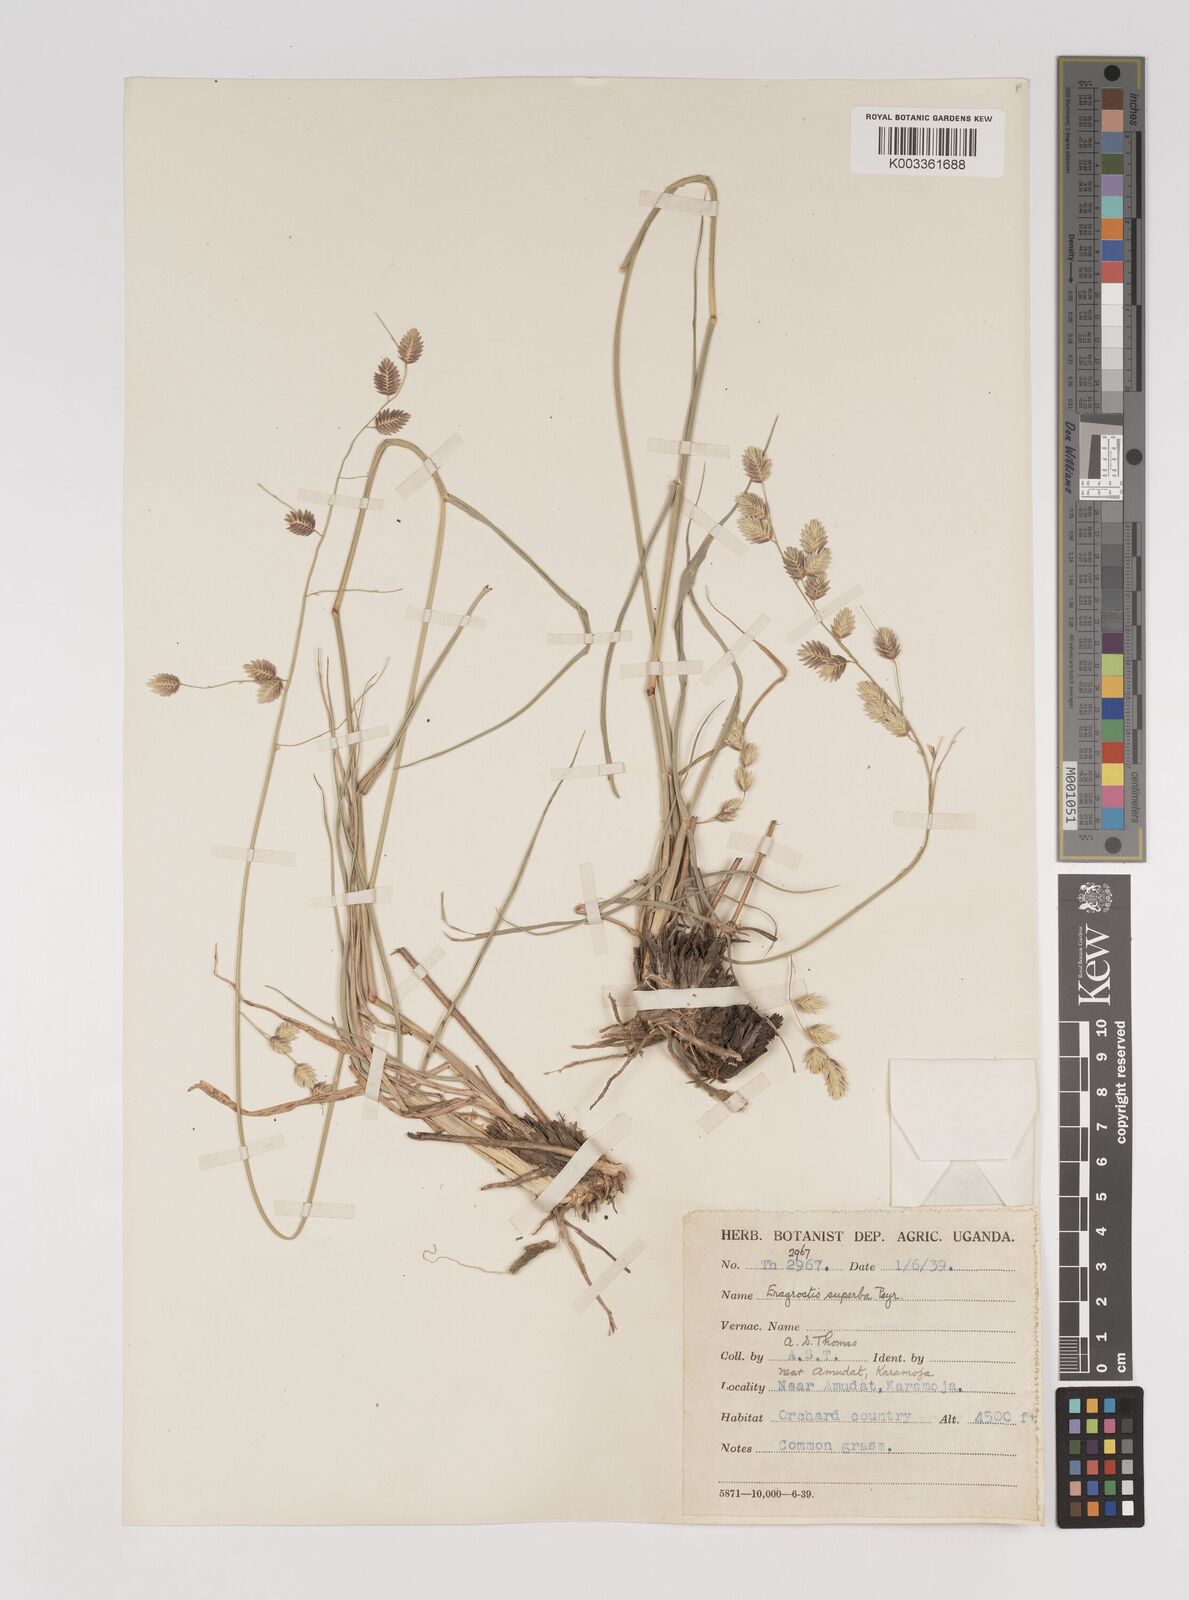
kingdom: Plantae
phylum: Tracheophyta
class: Liliopsida
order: Poales
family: Poaceae
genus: Eragrostis
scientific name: Eragrostis superba
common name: Wilman lovegrass
